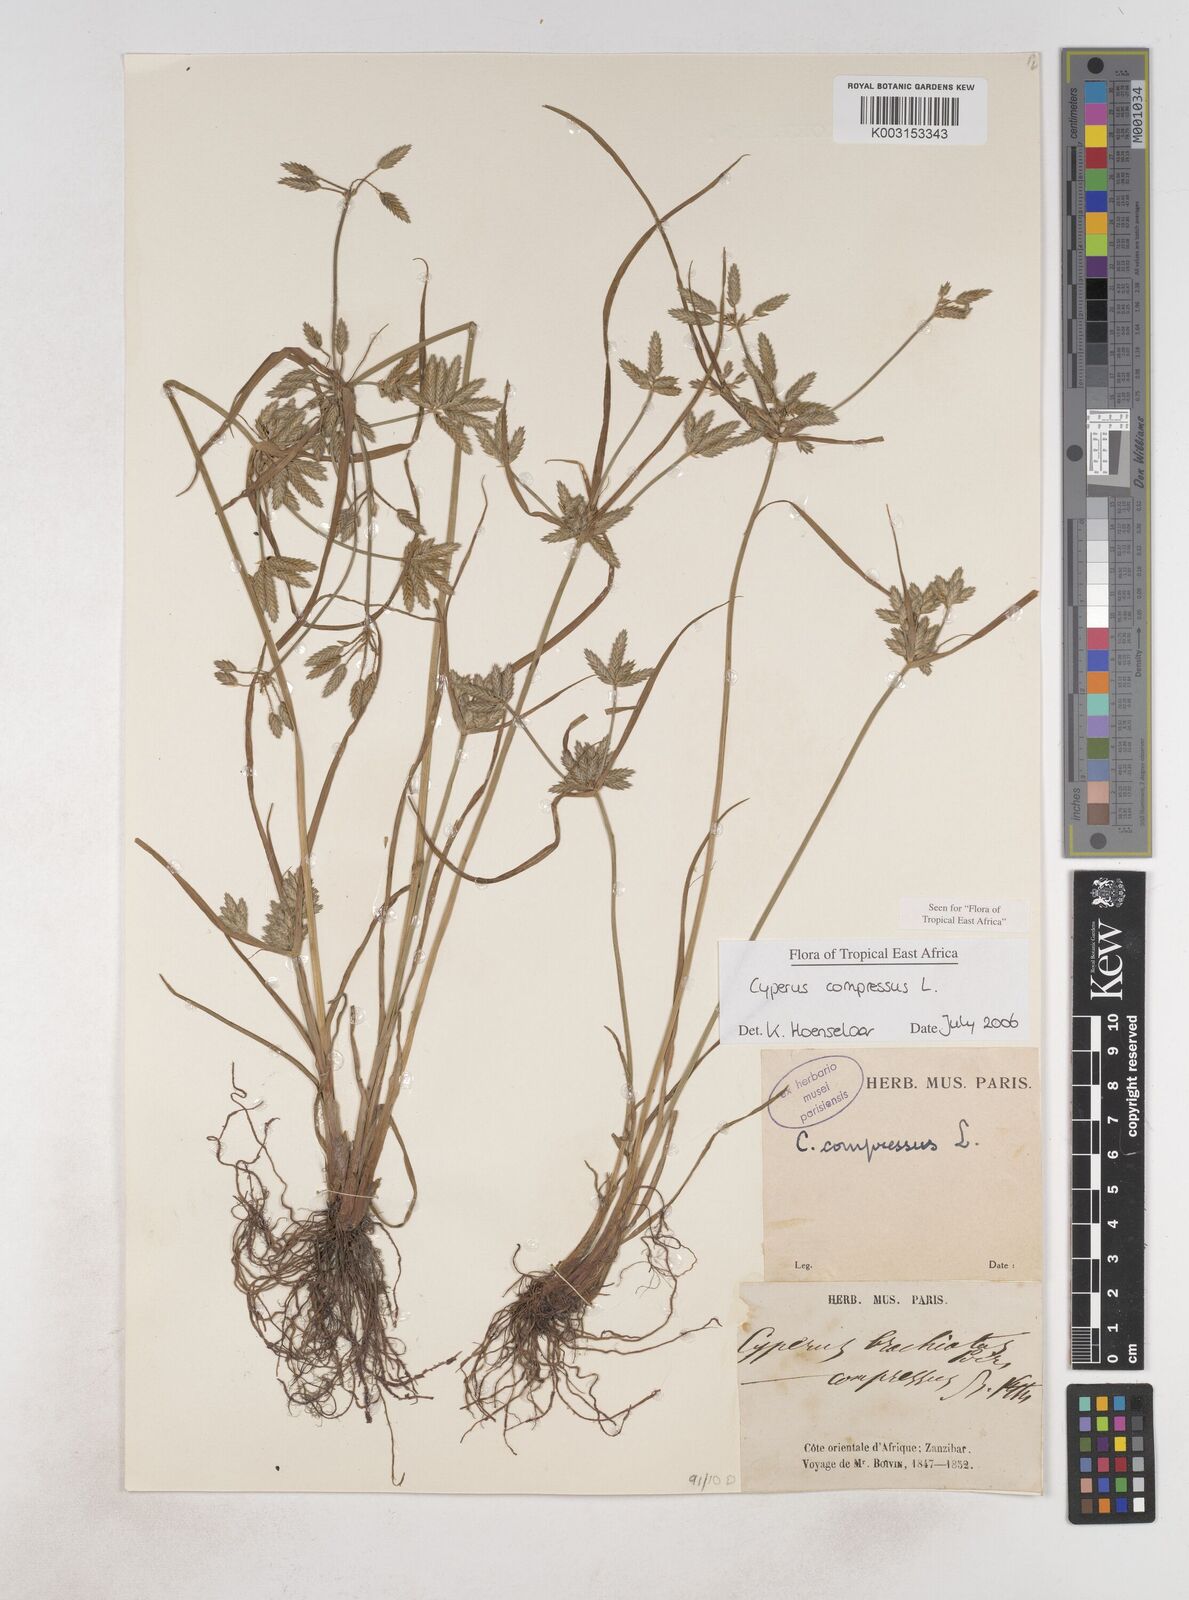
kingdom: Plantae
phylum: Tracheophyta
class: Liliopsida
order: Poales
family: Cyperaceae
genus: Cyperus
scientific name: Cyperus compressus
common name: Poorland flatsedge
